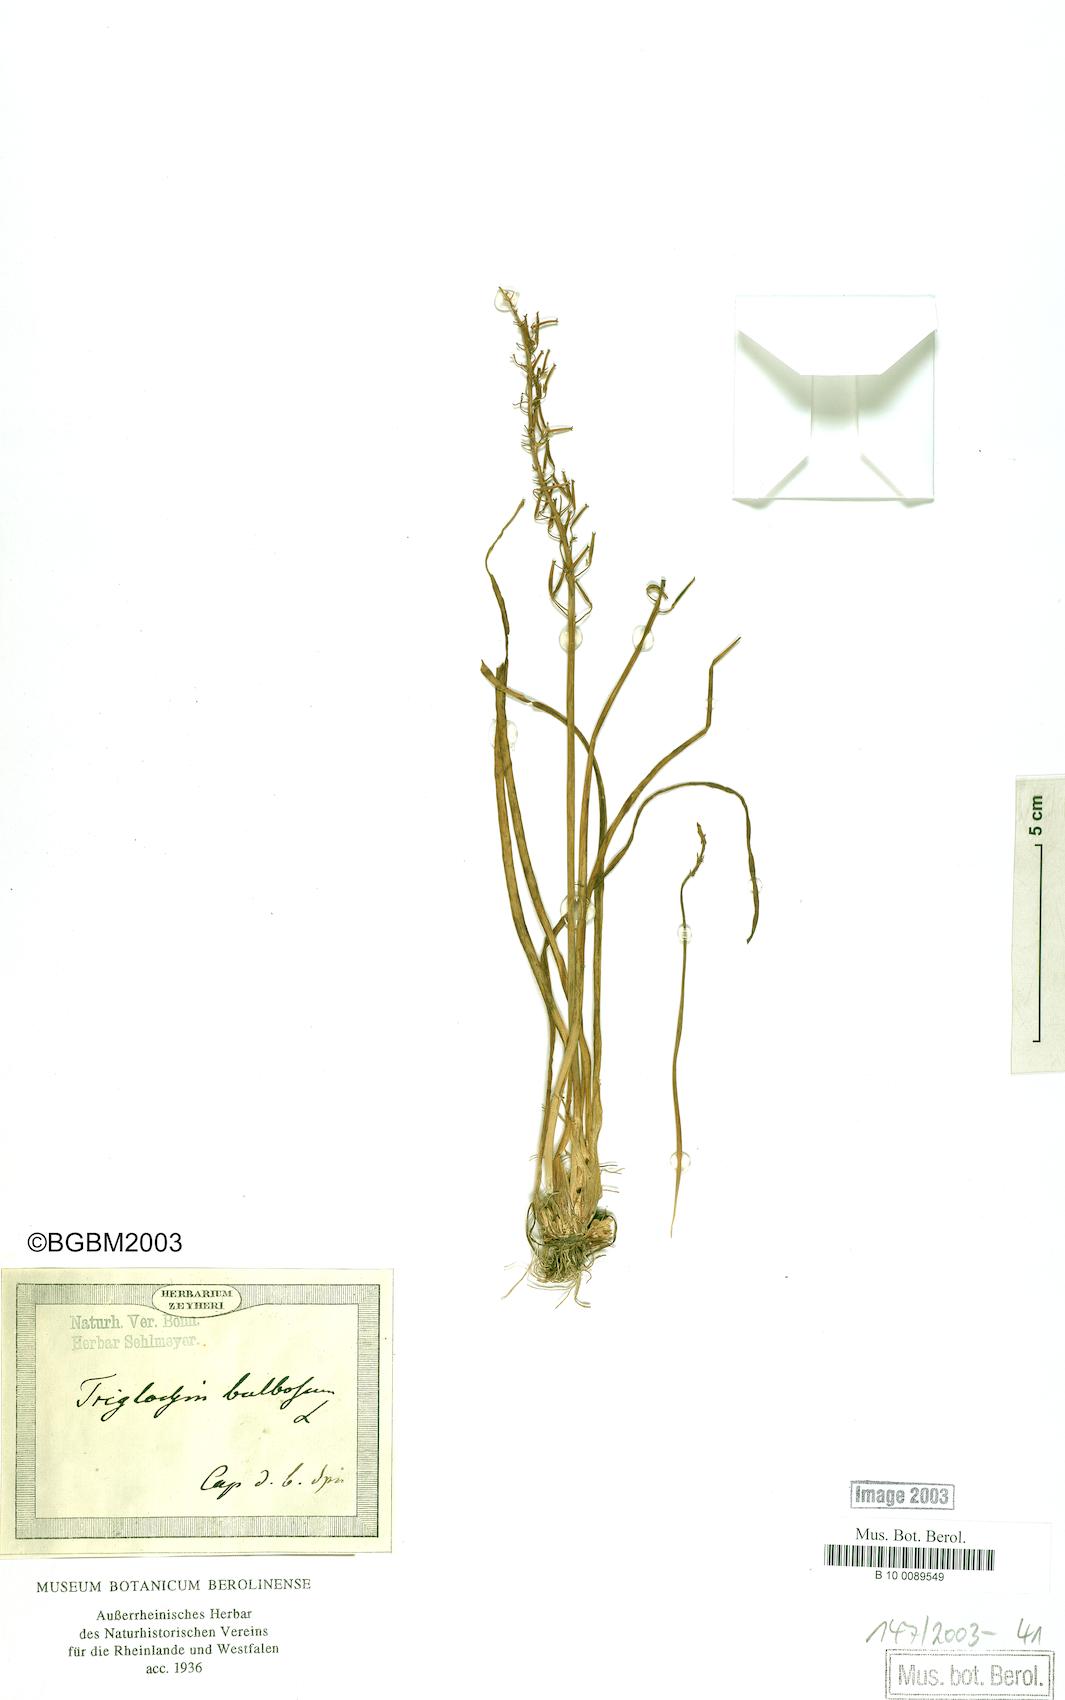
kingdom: Plantae
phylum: Tracheophyta
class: Liliopsida
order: Alismatales
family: Juncaginaceae
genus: Triglochin
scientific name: Triglochin bulbosa
